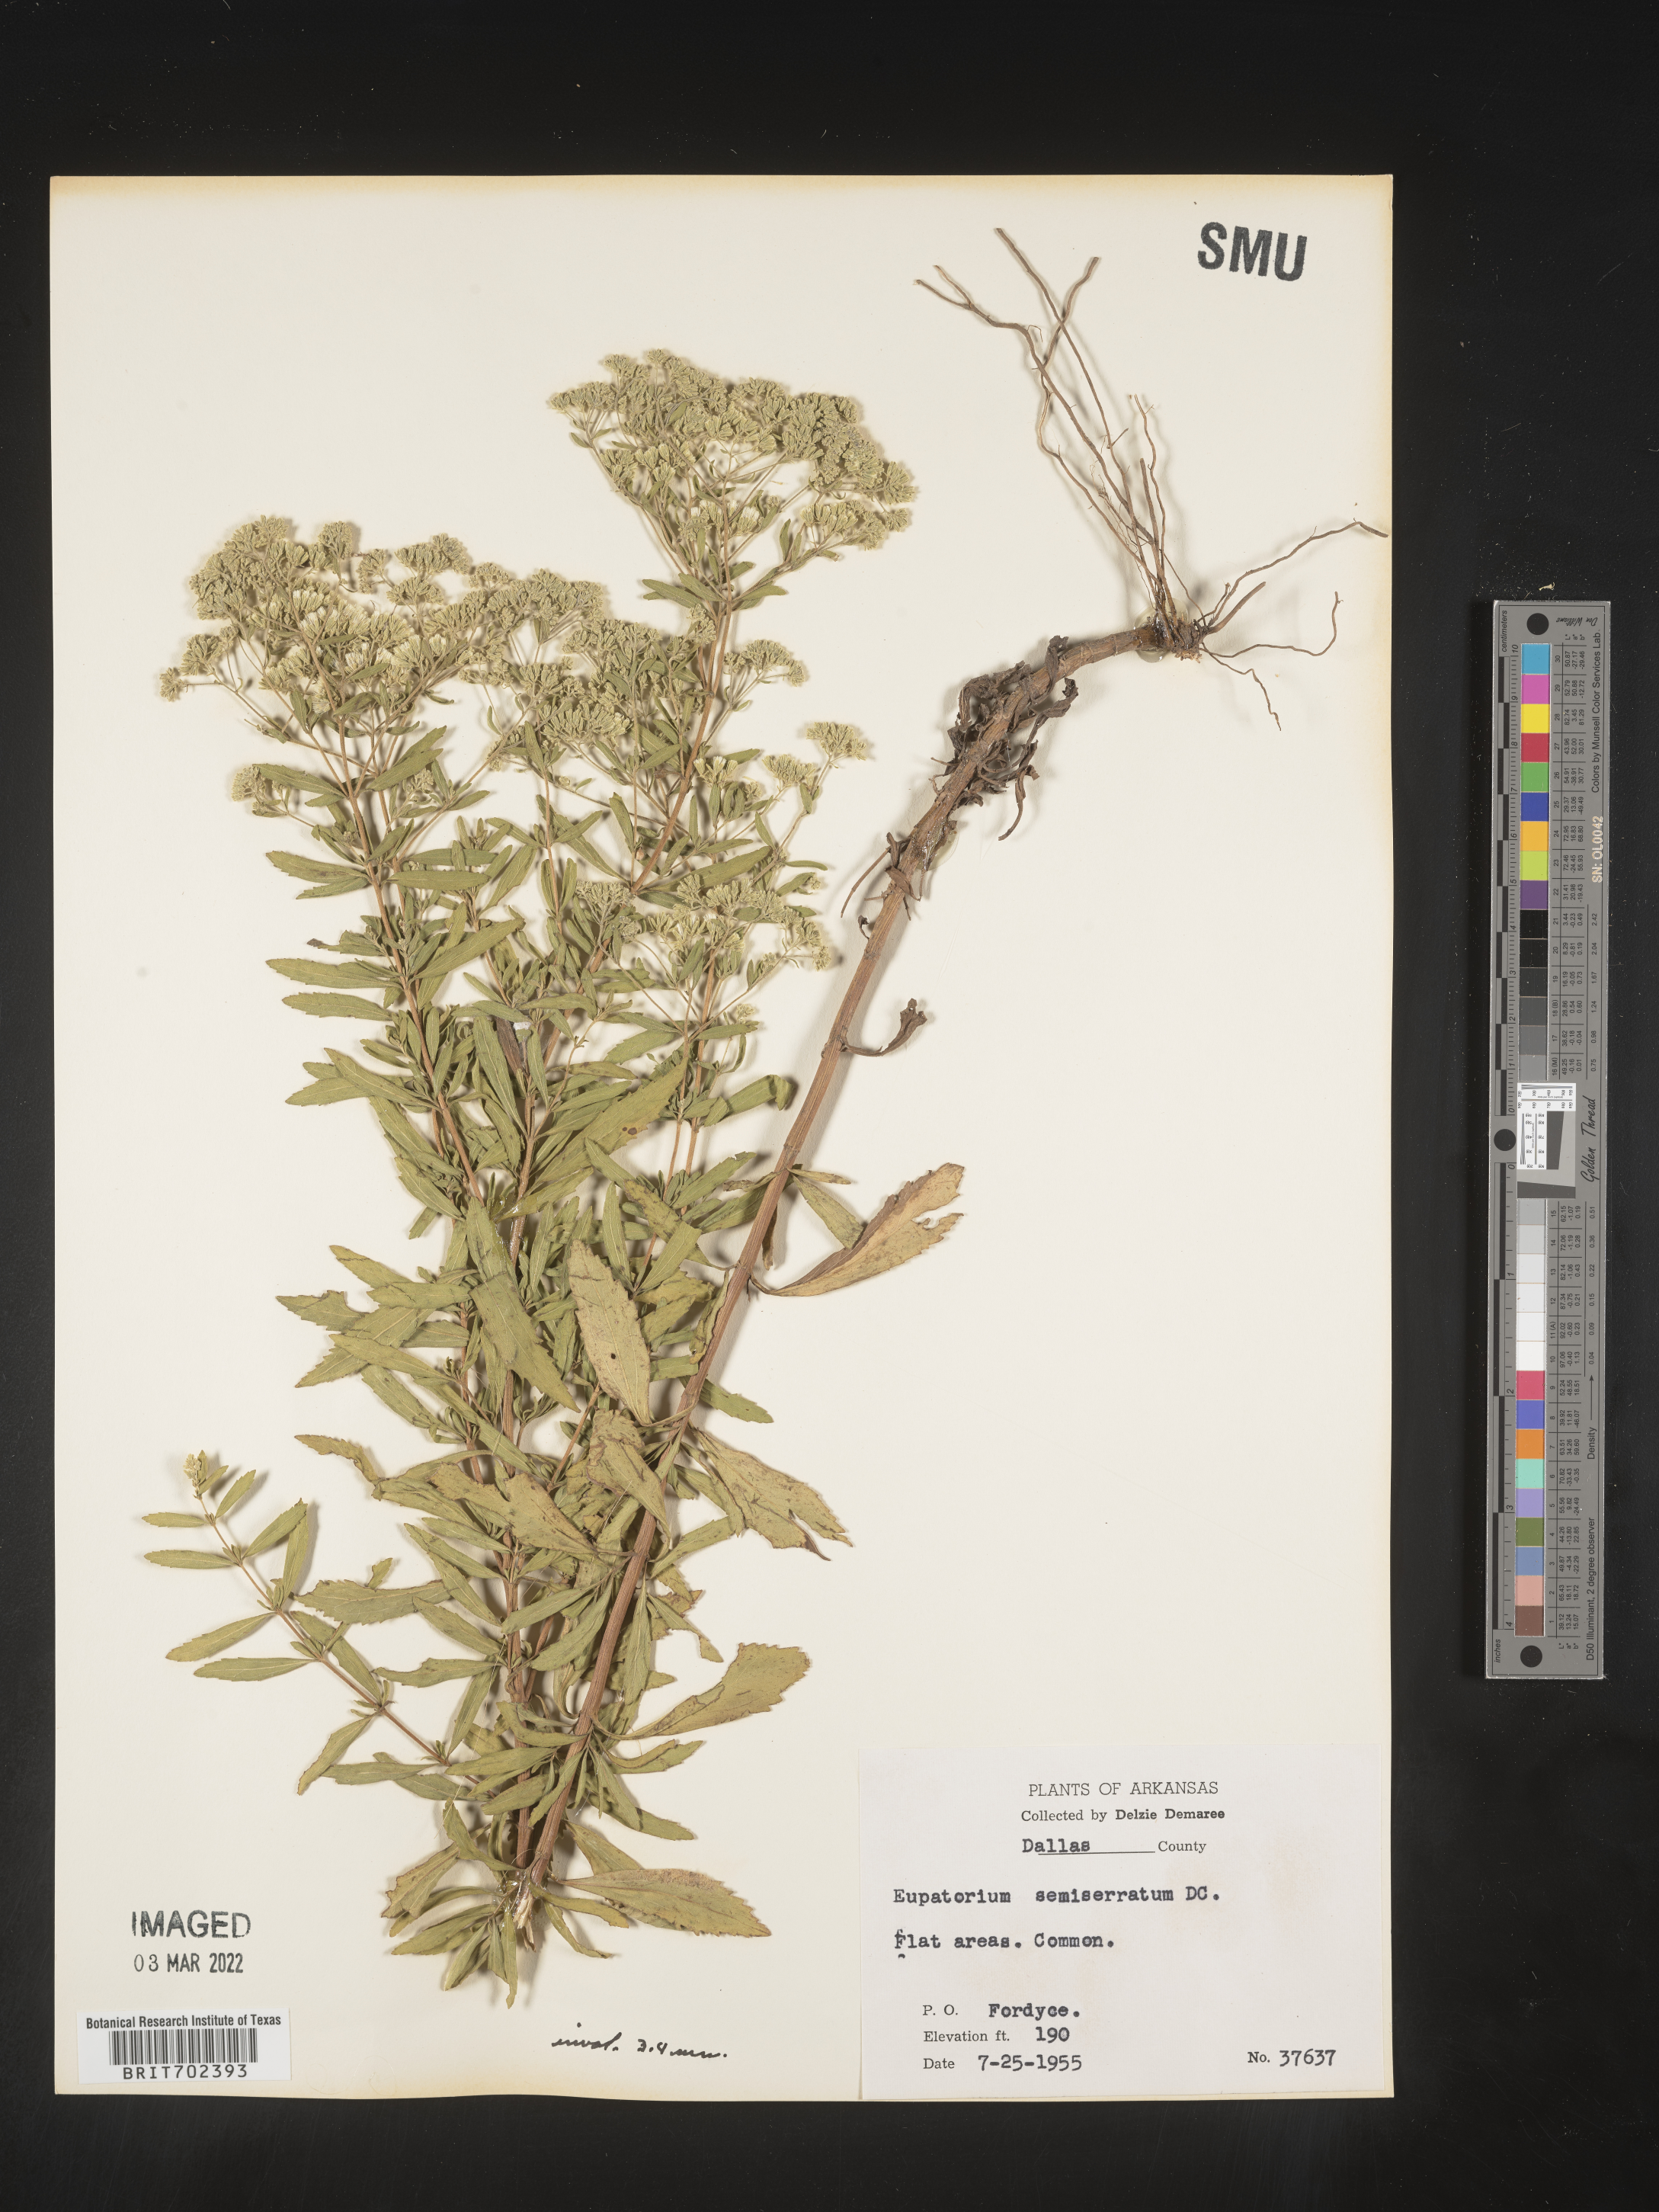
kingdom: Plantae
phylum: Tracheophyta
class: Magnoliopsida
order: Asterales
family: Asteraceae
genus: Eupatorium
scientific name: Eupatorium semiserratum
